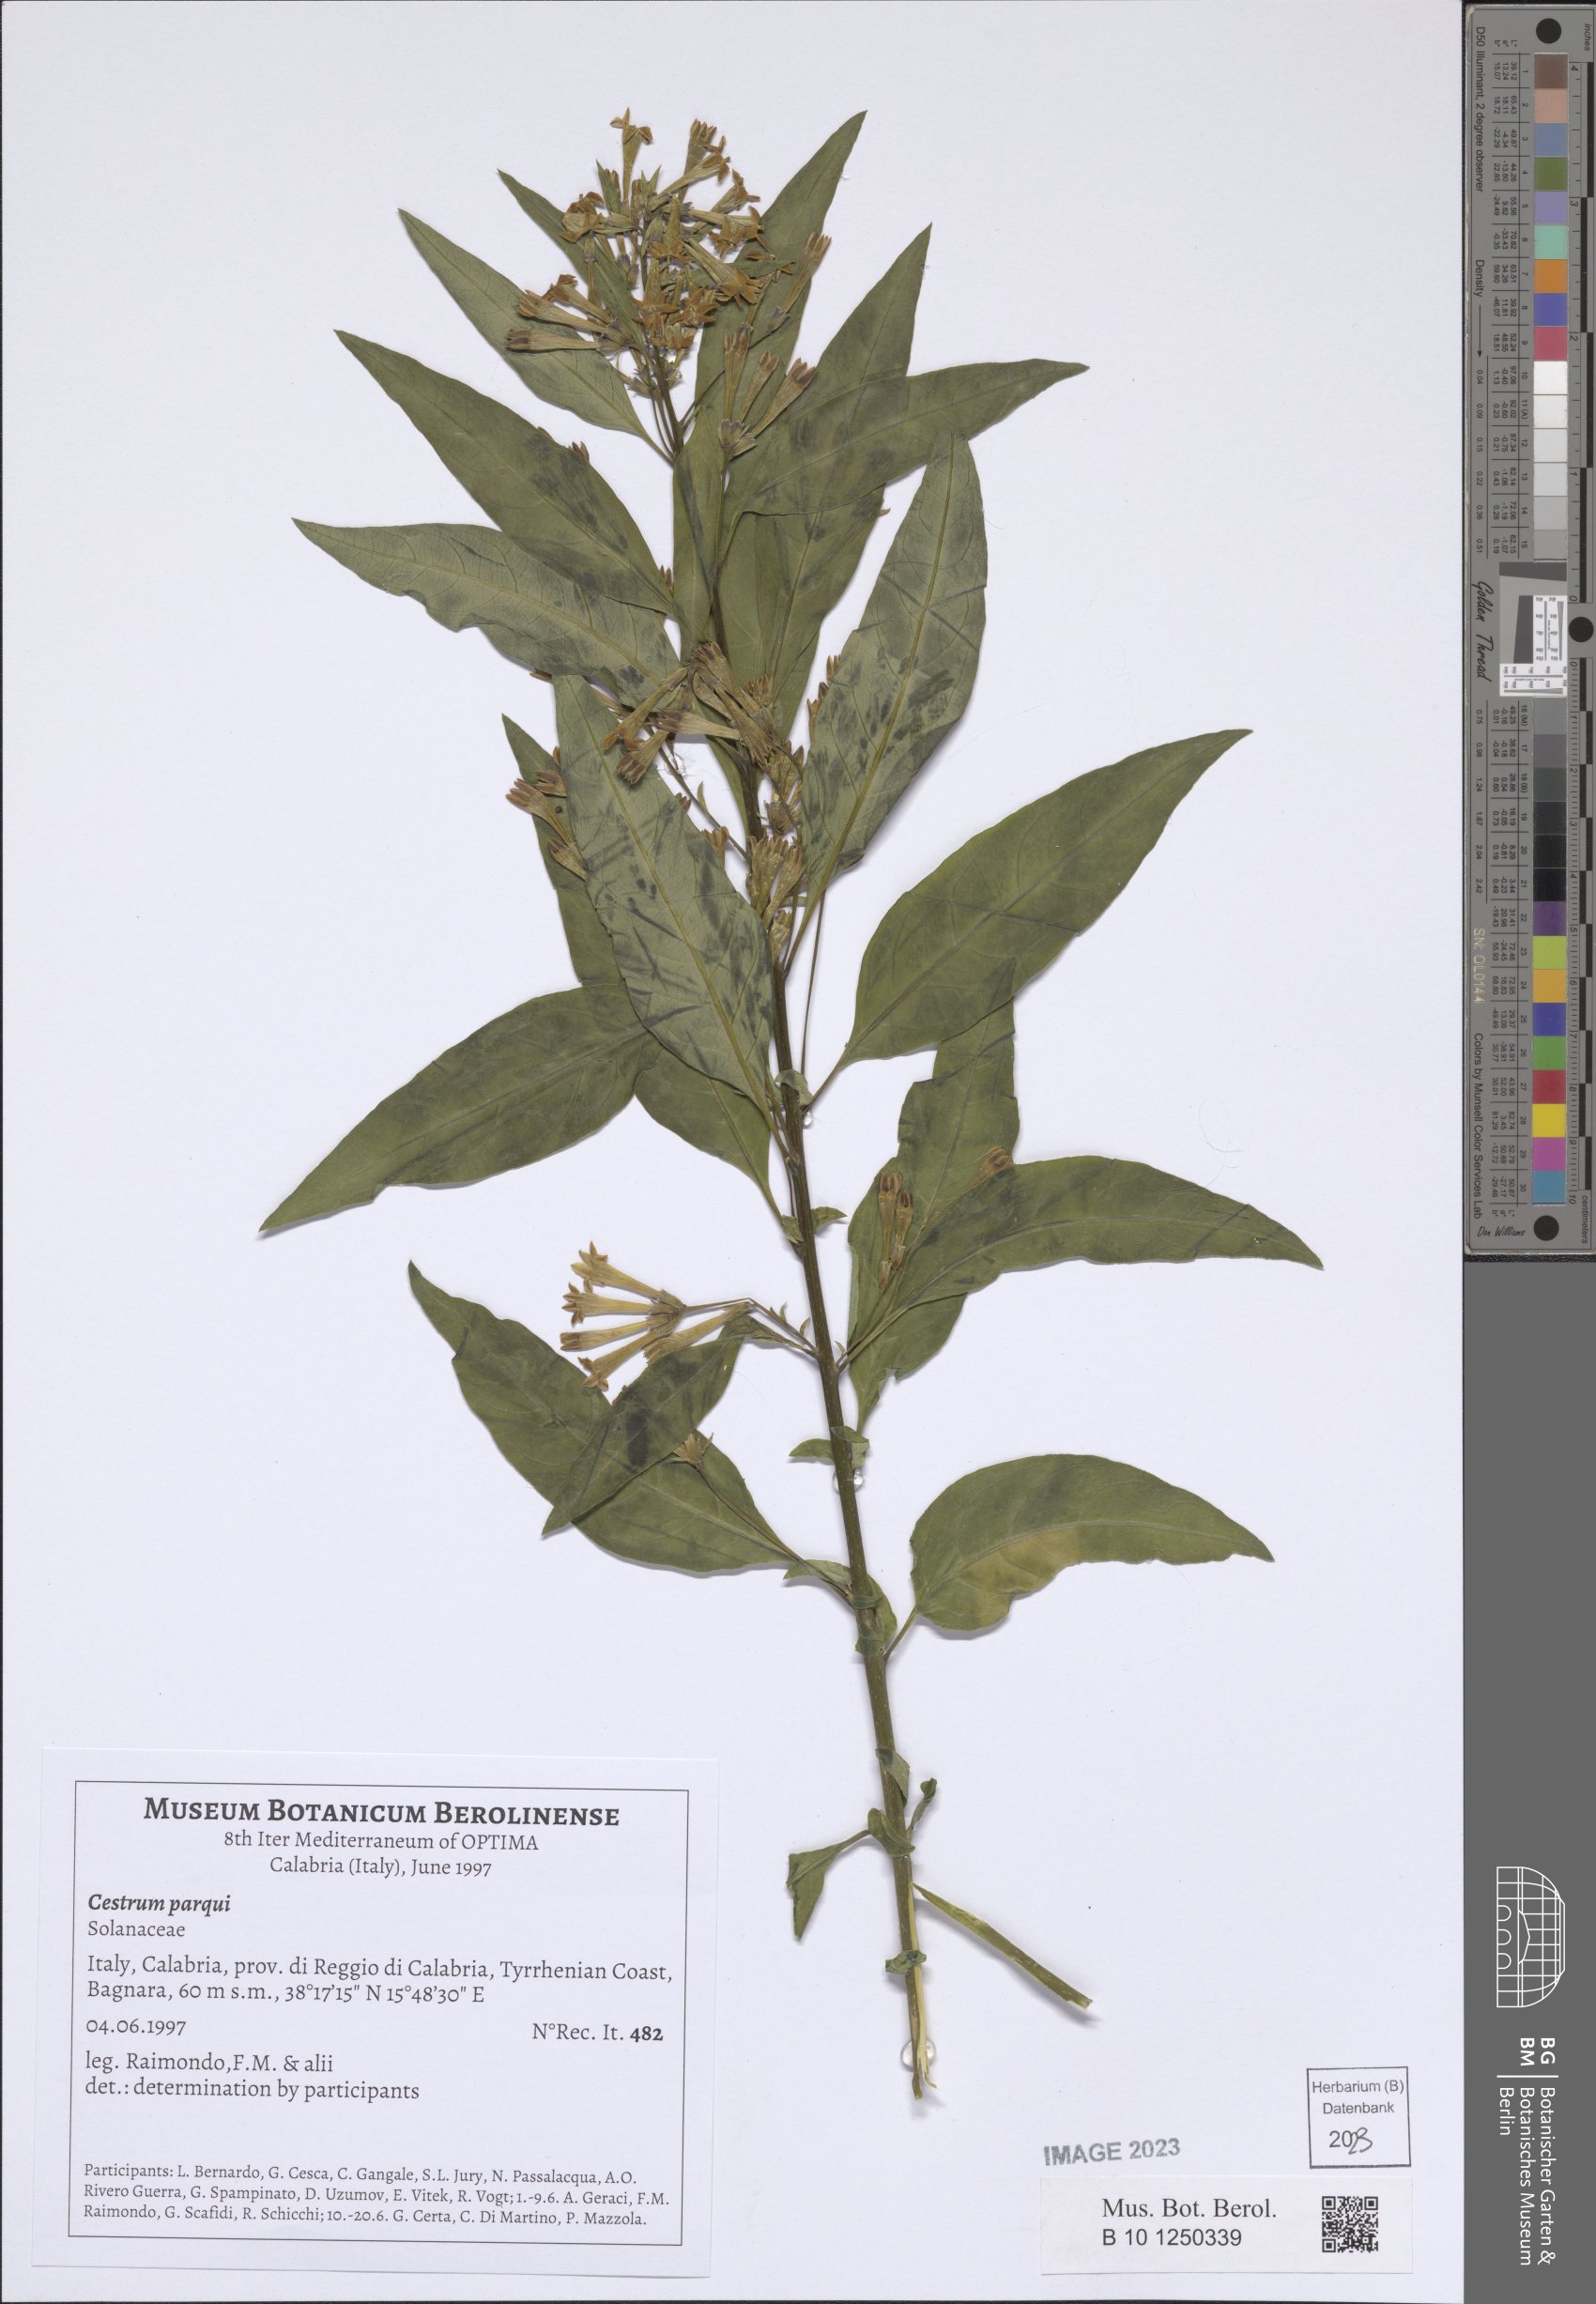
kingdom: Plantae
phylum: Tracheophyta
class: Magnoliopsida
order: Solanales
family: Solanaceae
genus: Cestrum
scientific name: Cestrum thyrsoideum
